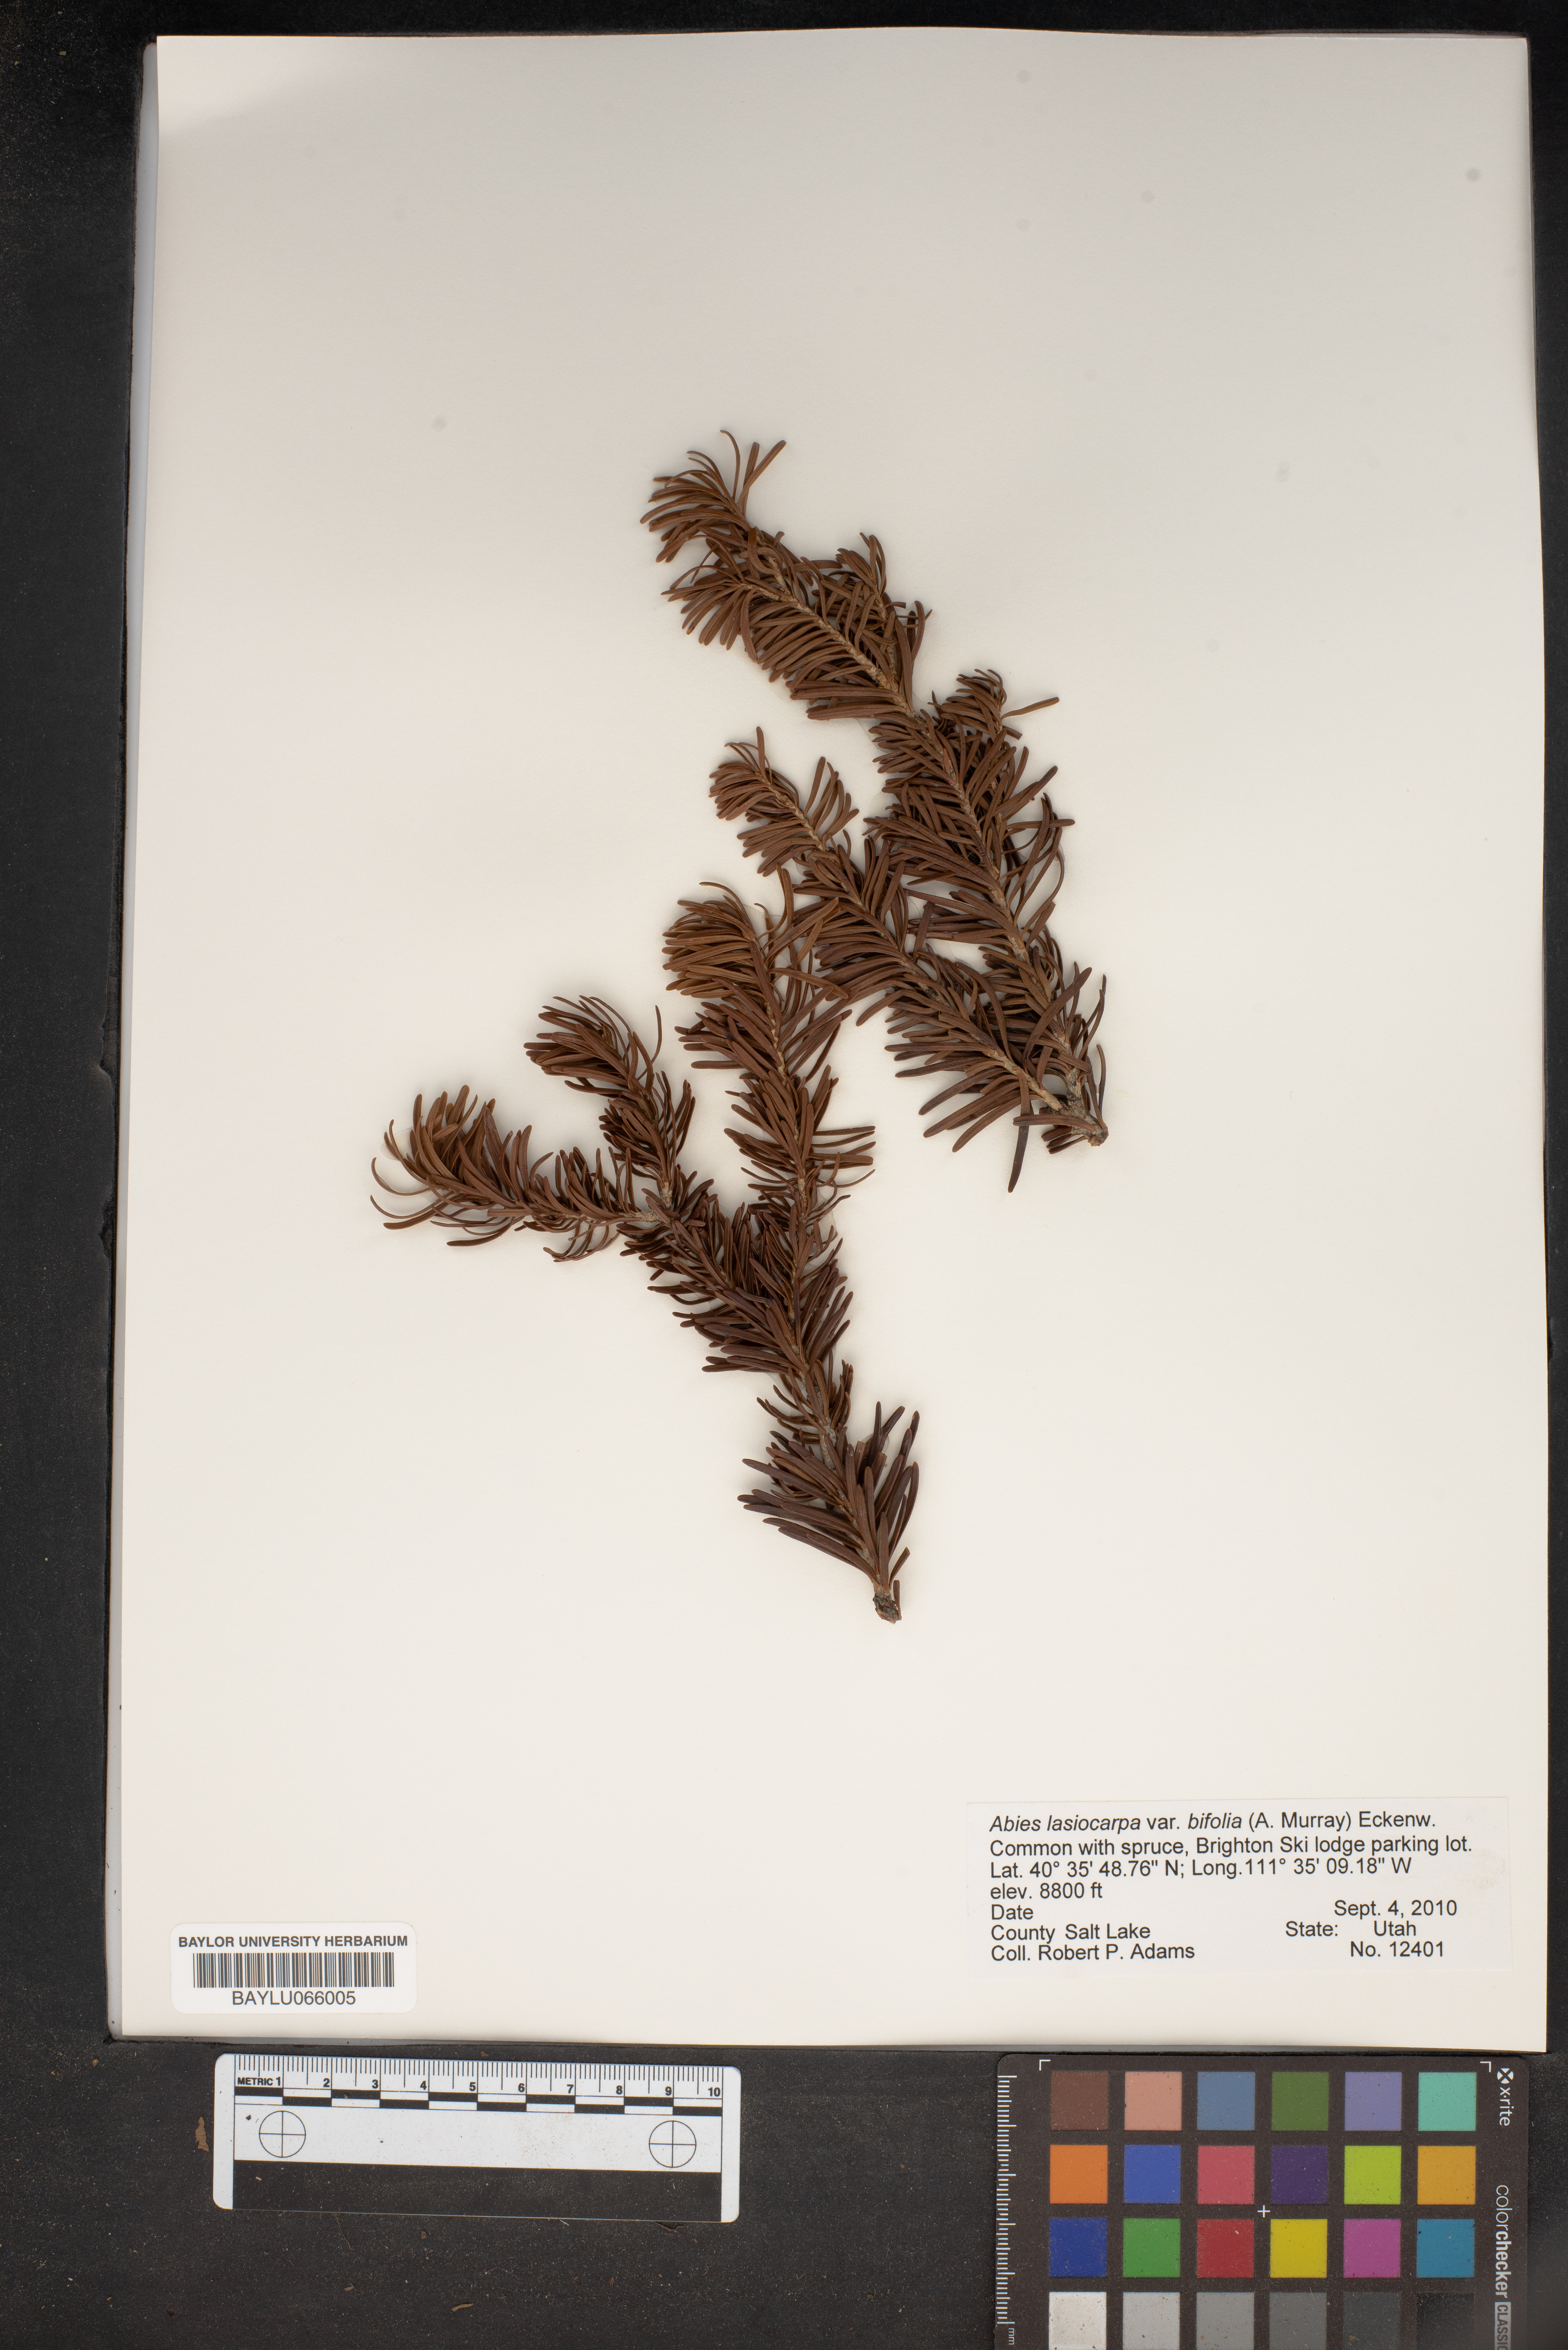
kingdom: Plantae
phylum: Tracheophyta
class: Pinopsida
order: Pinales
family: Pinaceae
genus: Abies
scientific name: Abies lasiocarpa
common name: Subalpine fir
